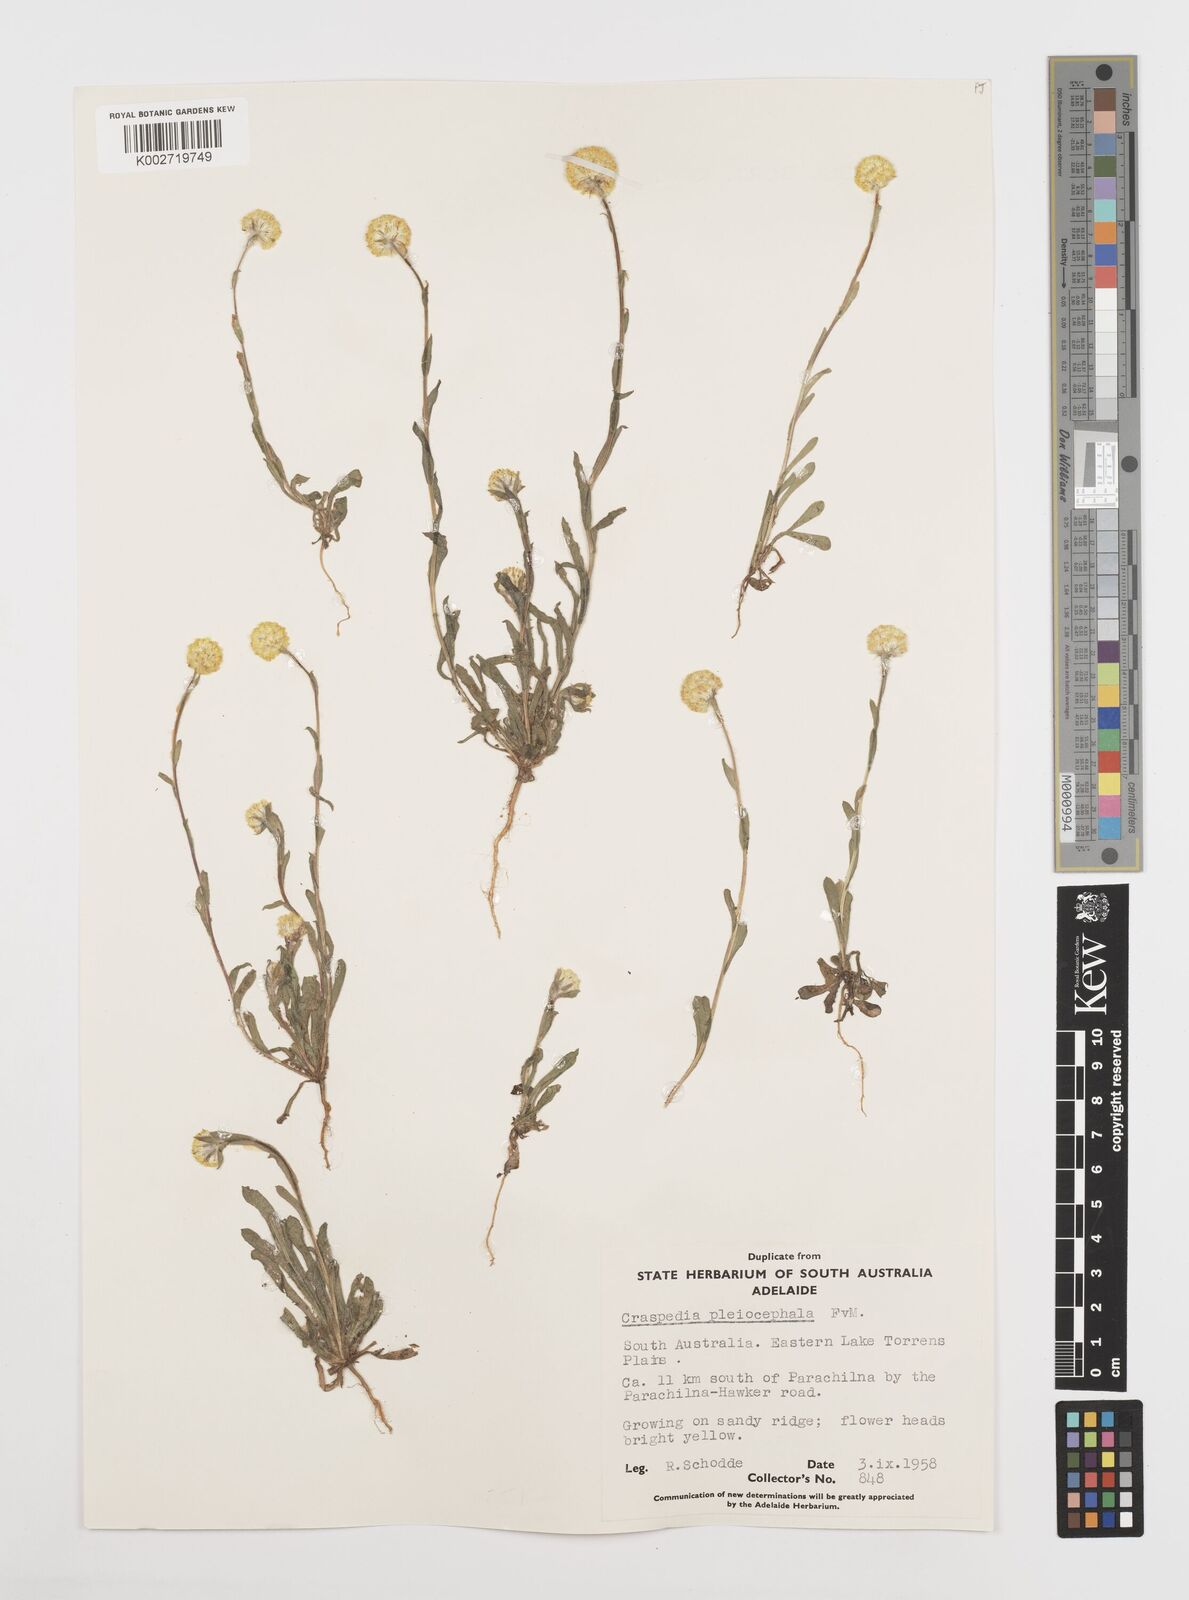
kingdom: Plantae
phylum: Tracheophyta
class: Magnoliopsida
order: Asterales
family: Asteraceae
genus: Pycnosorus
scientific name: Pycnosorus pleiocephalus
